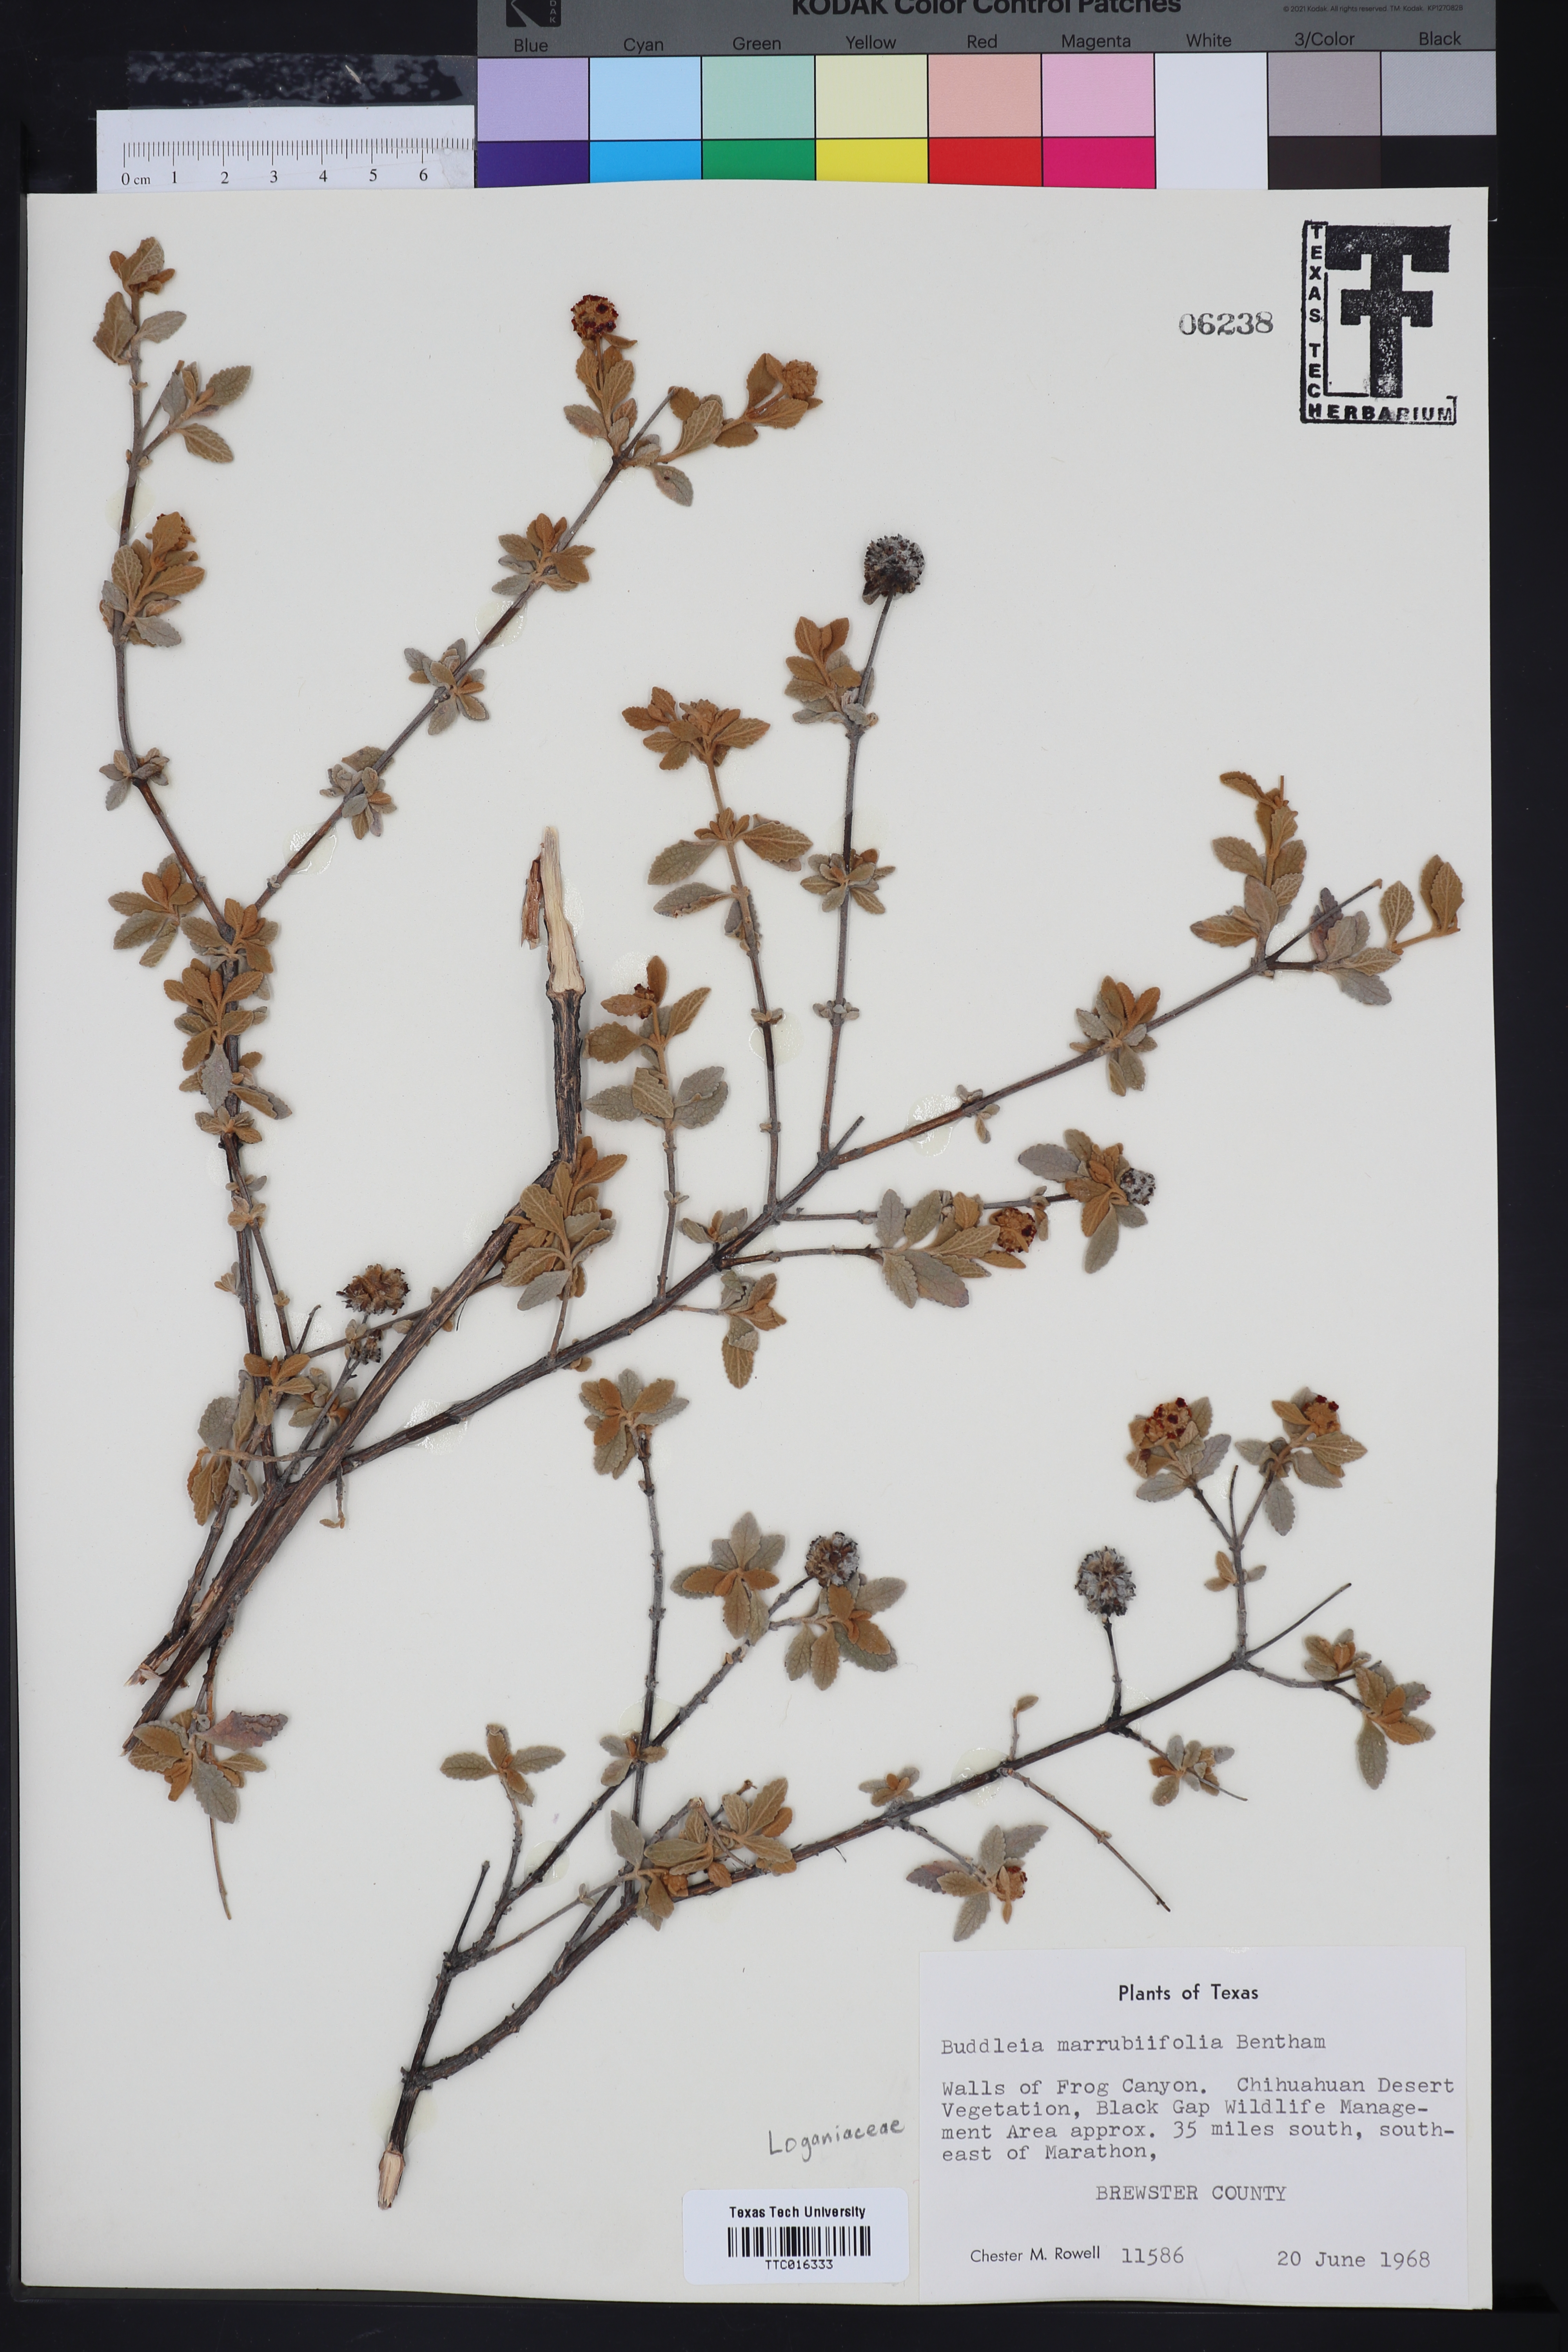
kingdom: Plantae
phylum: Tracheophyta
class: Magnoliopsida
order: Lamiales
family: Scrophulariaceae
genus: Buddleja
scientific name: Buddleja marrubiifolia
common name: Woolly butterfly-bush
